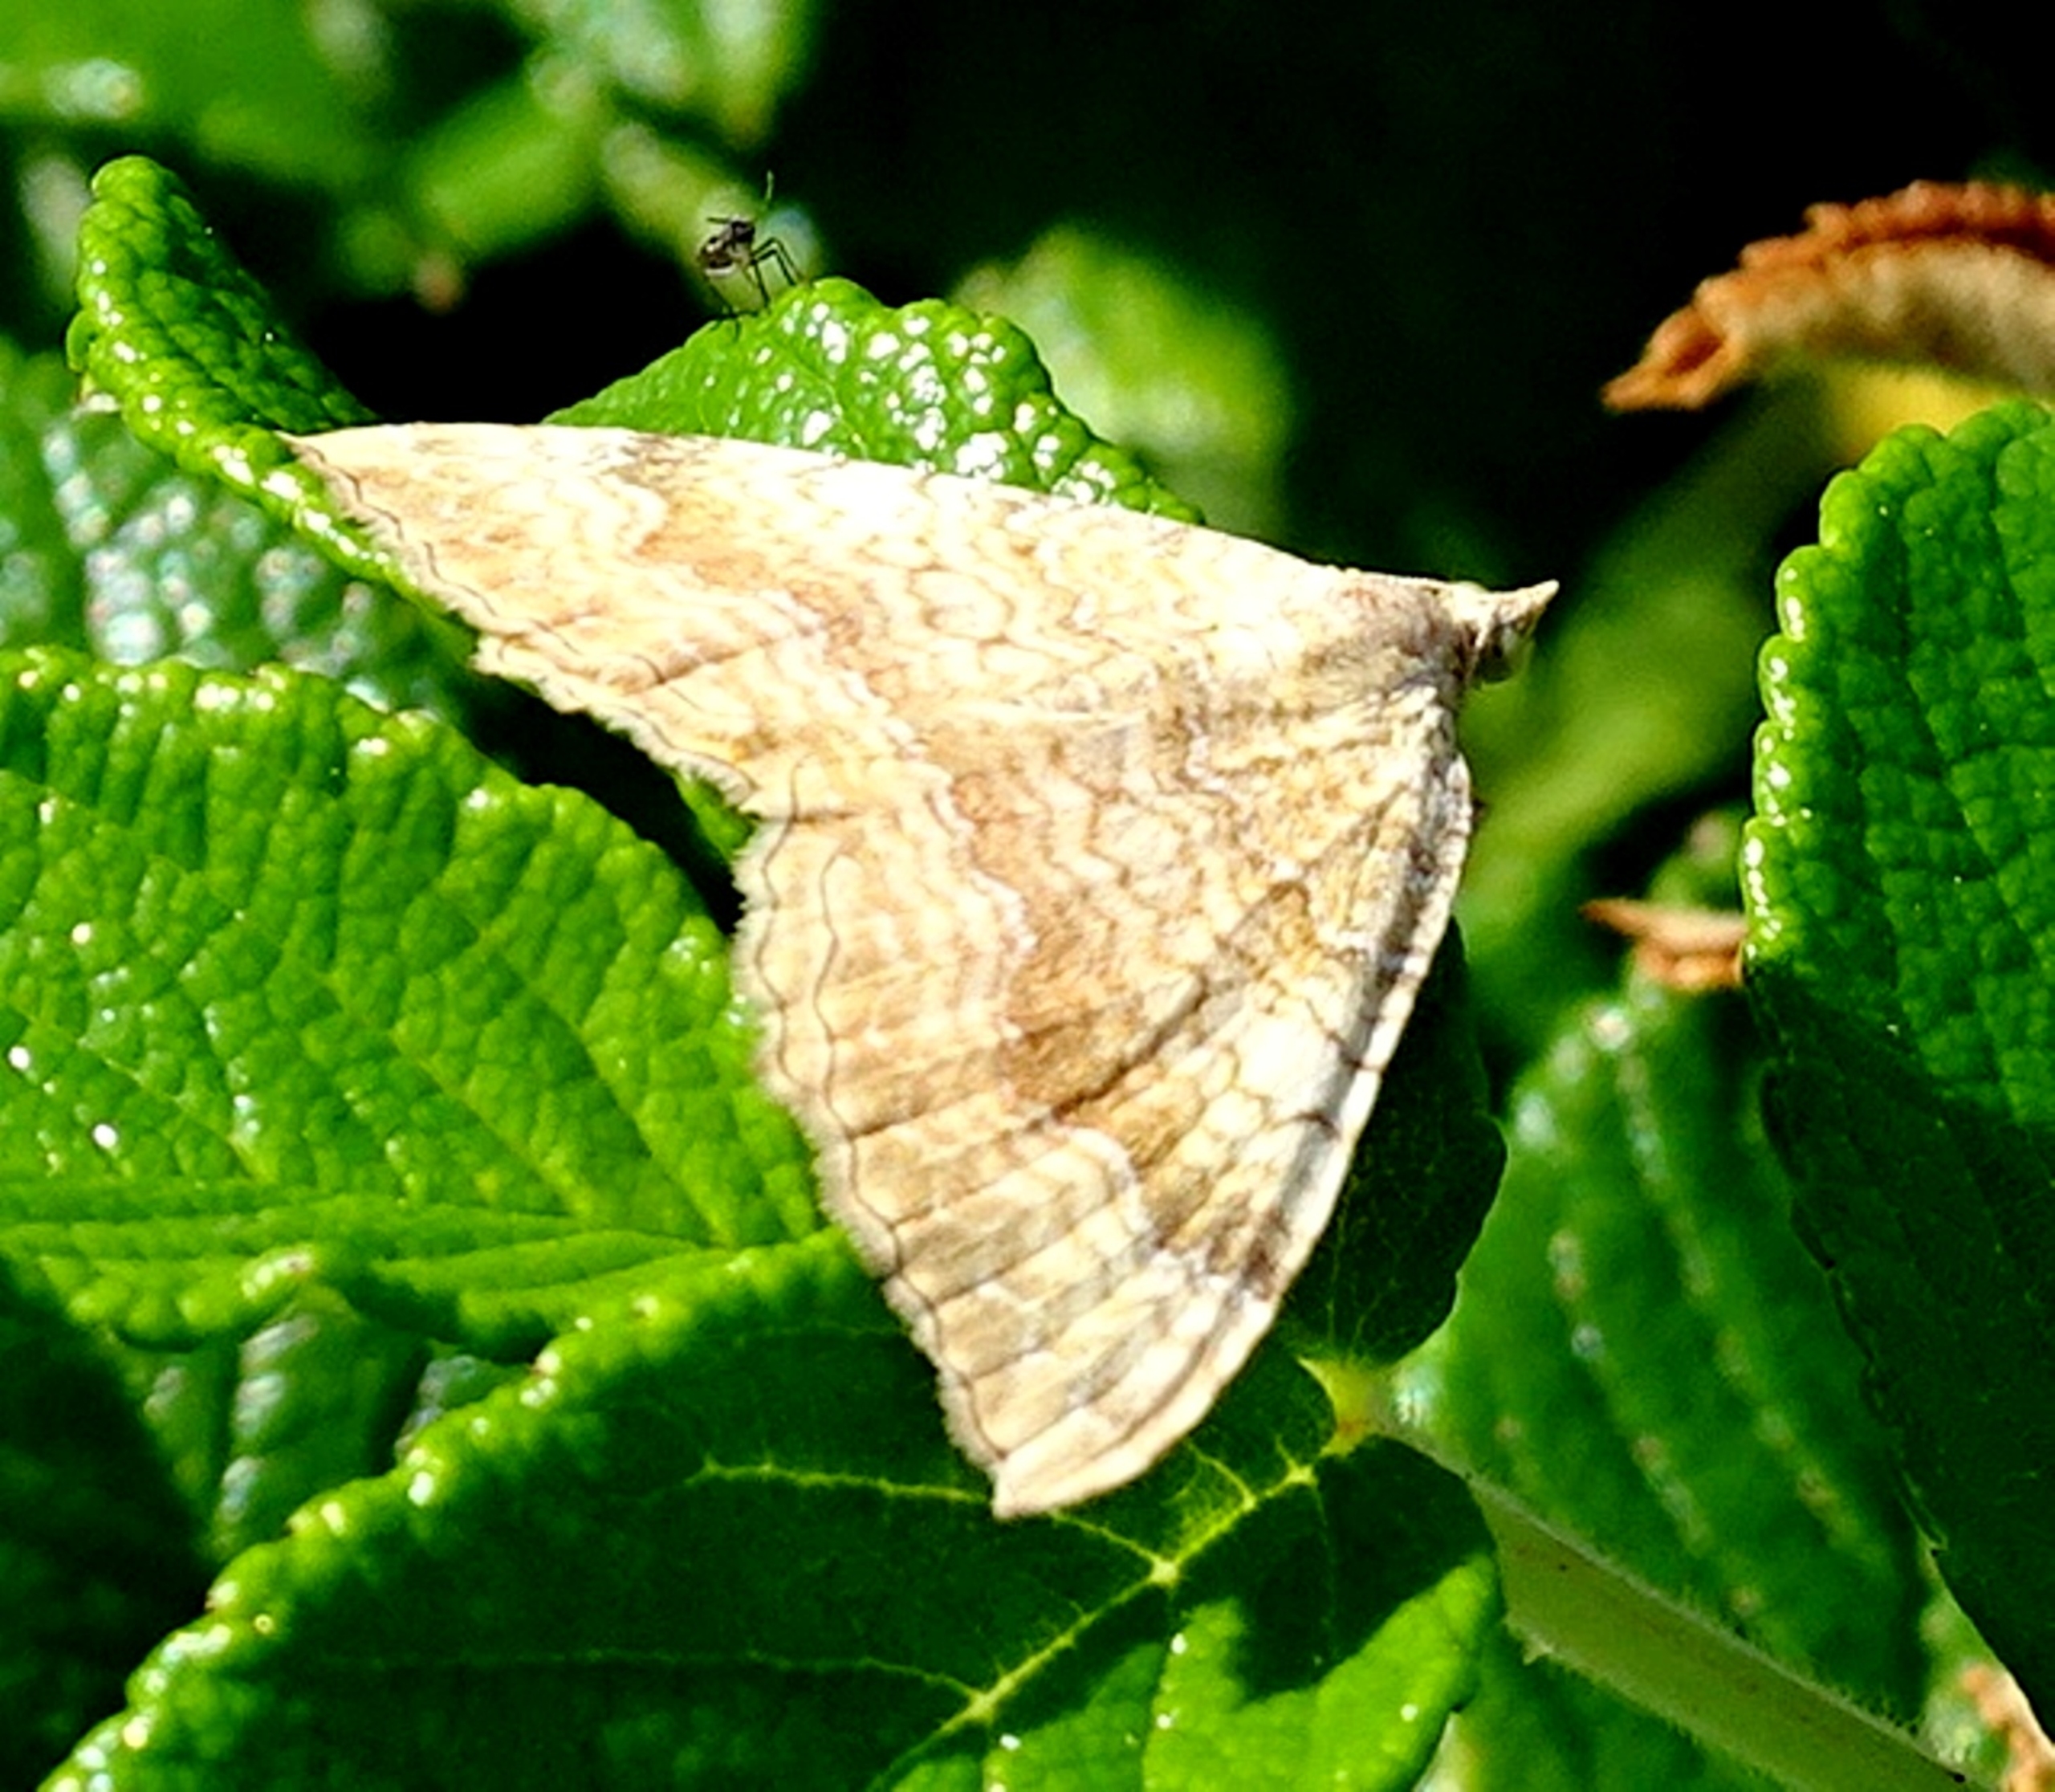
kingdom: Animalia
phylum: Arthropoda
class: Insecta
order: Lepidoptera
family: Geometridae
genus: Camptogramma
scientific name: Camptogramma bilineata
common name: Okkergul bladmåler
